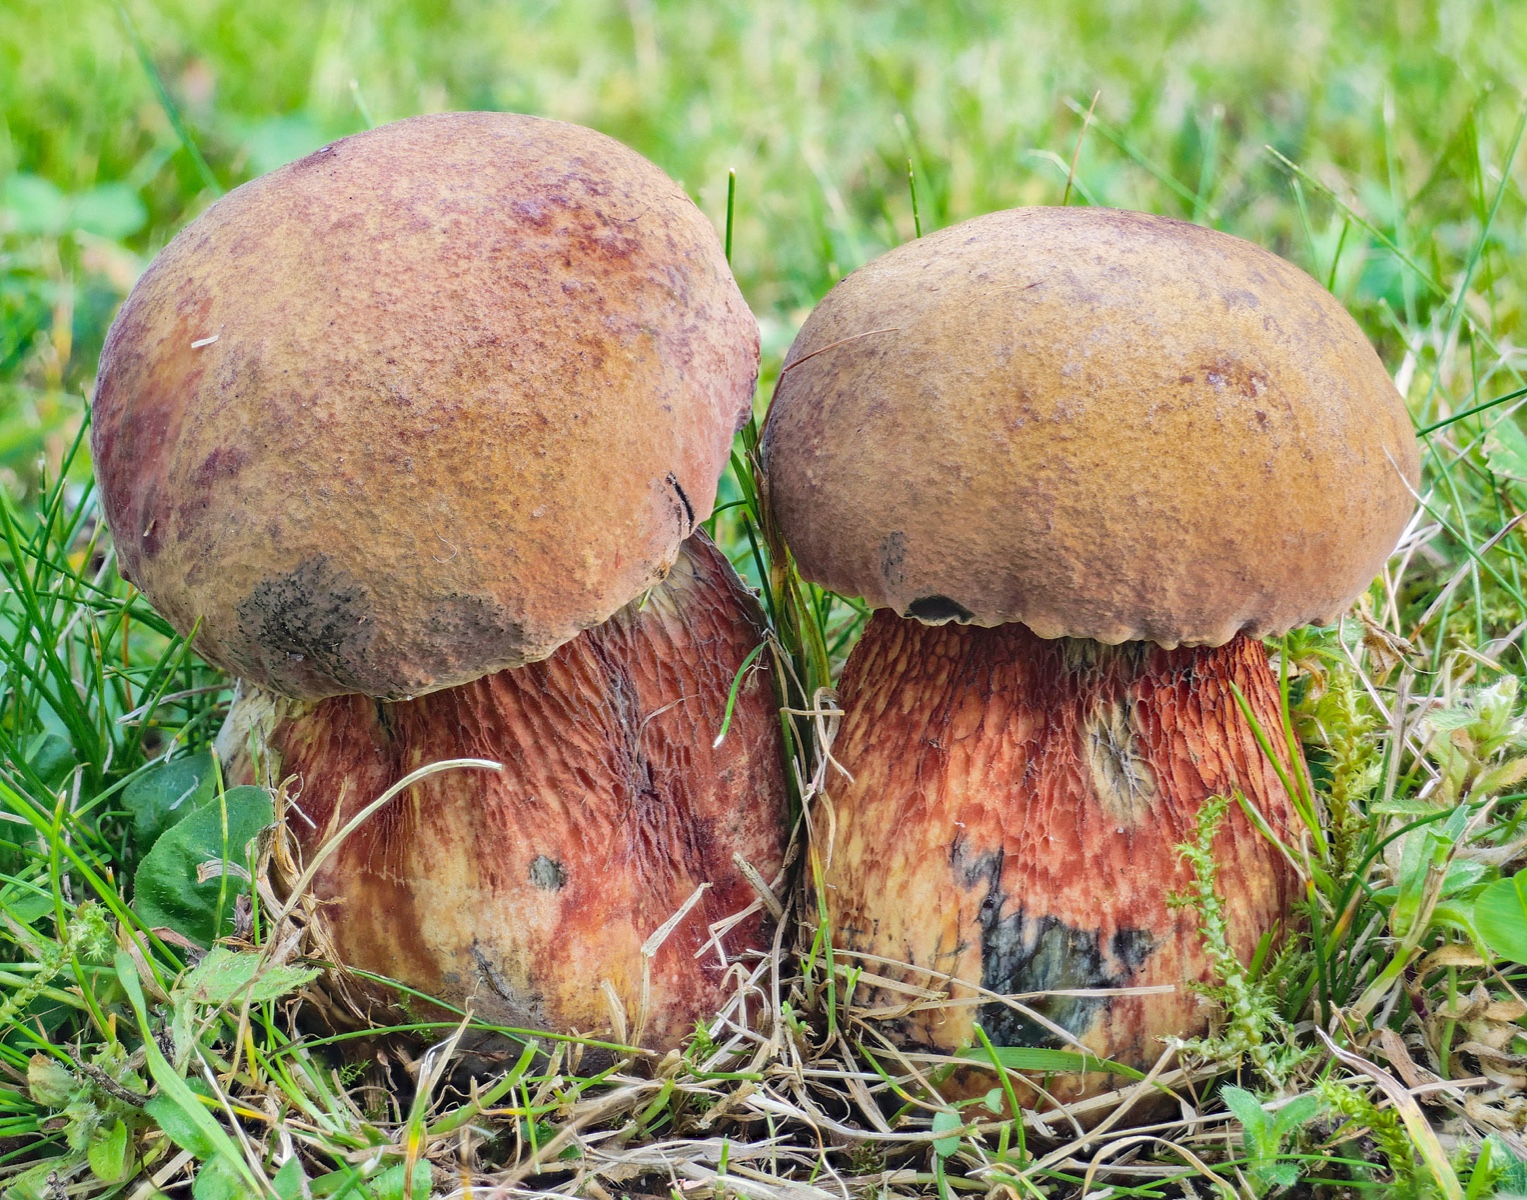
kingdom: Fungi
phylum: Basidiomycota
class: Agaricomycetes
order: Boletales
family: Boletaceae
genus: Suillellus
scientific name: Suillellus luridus
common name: netstokket indigorørhat
